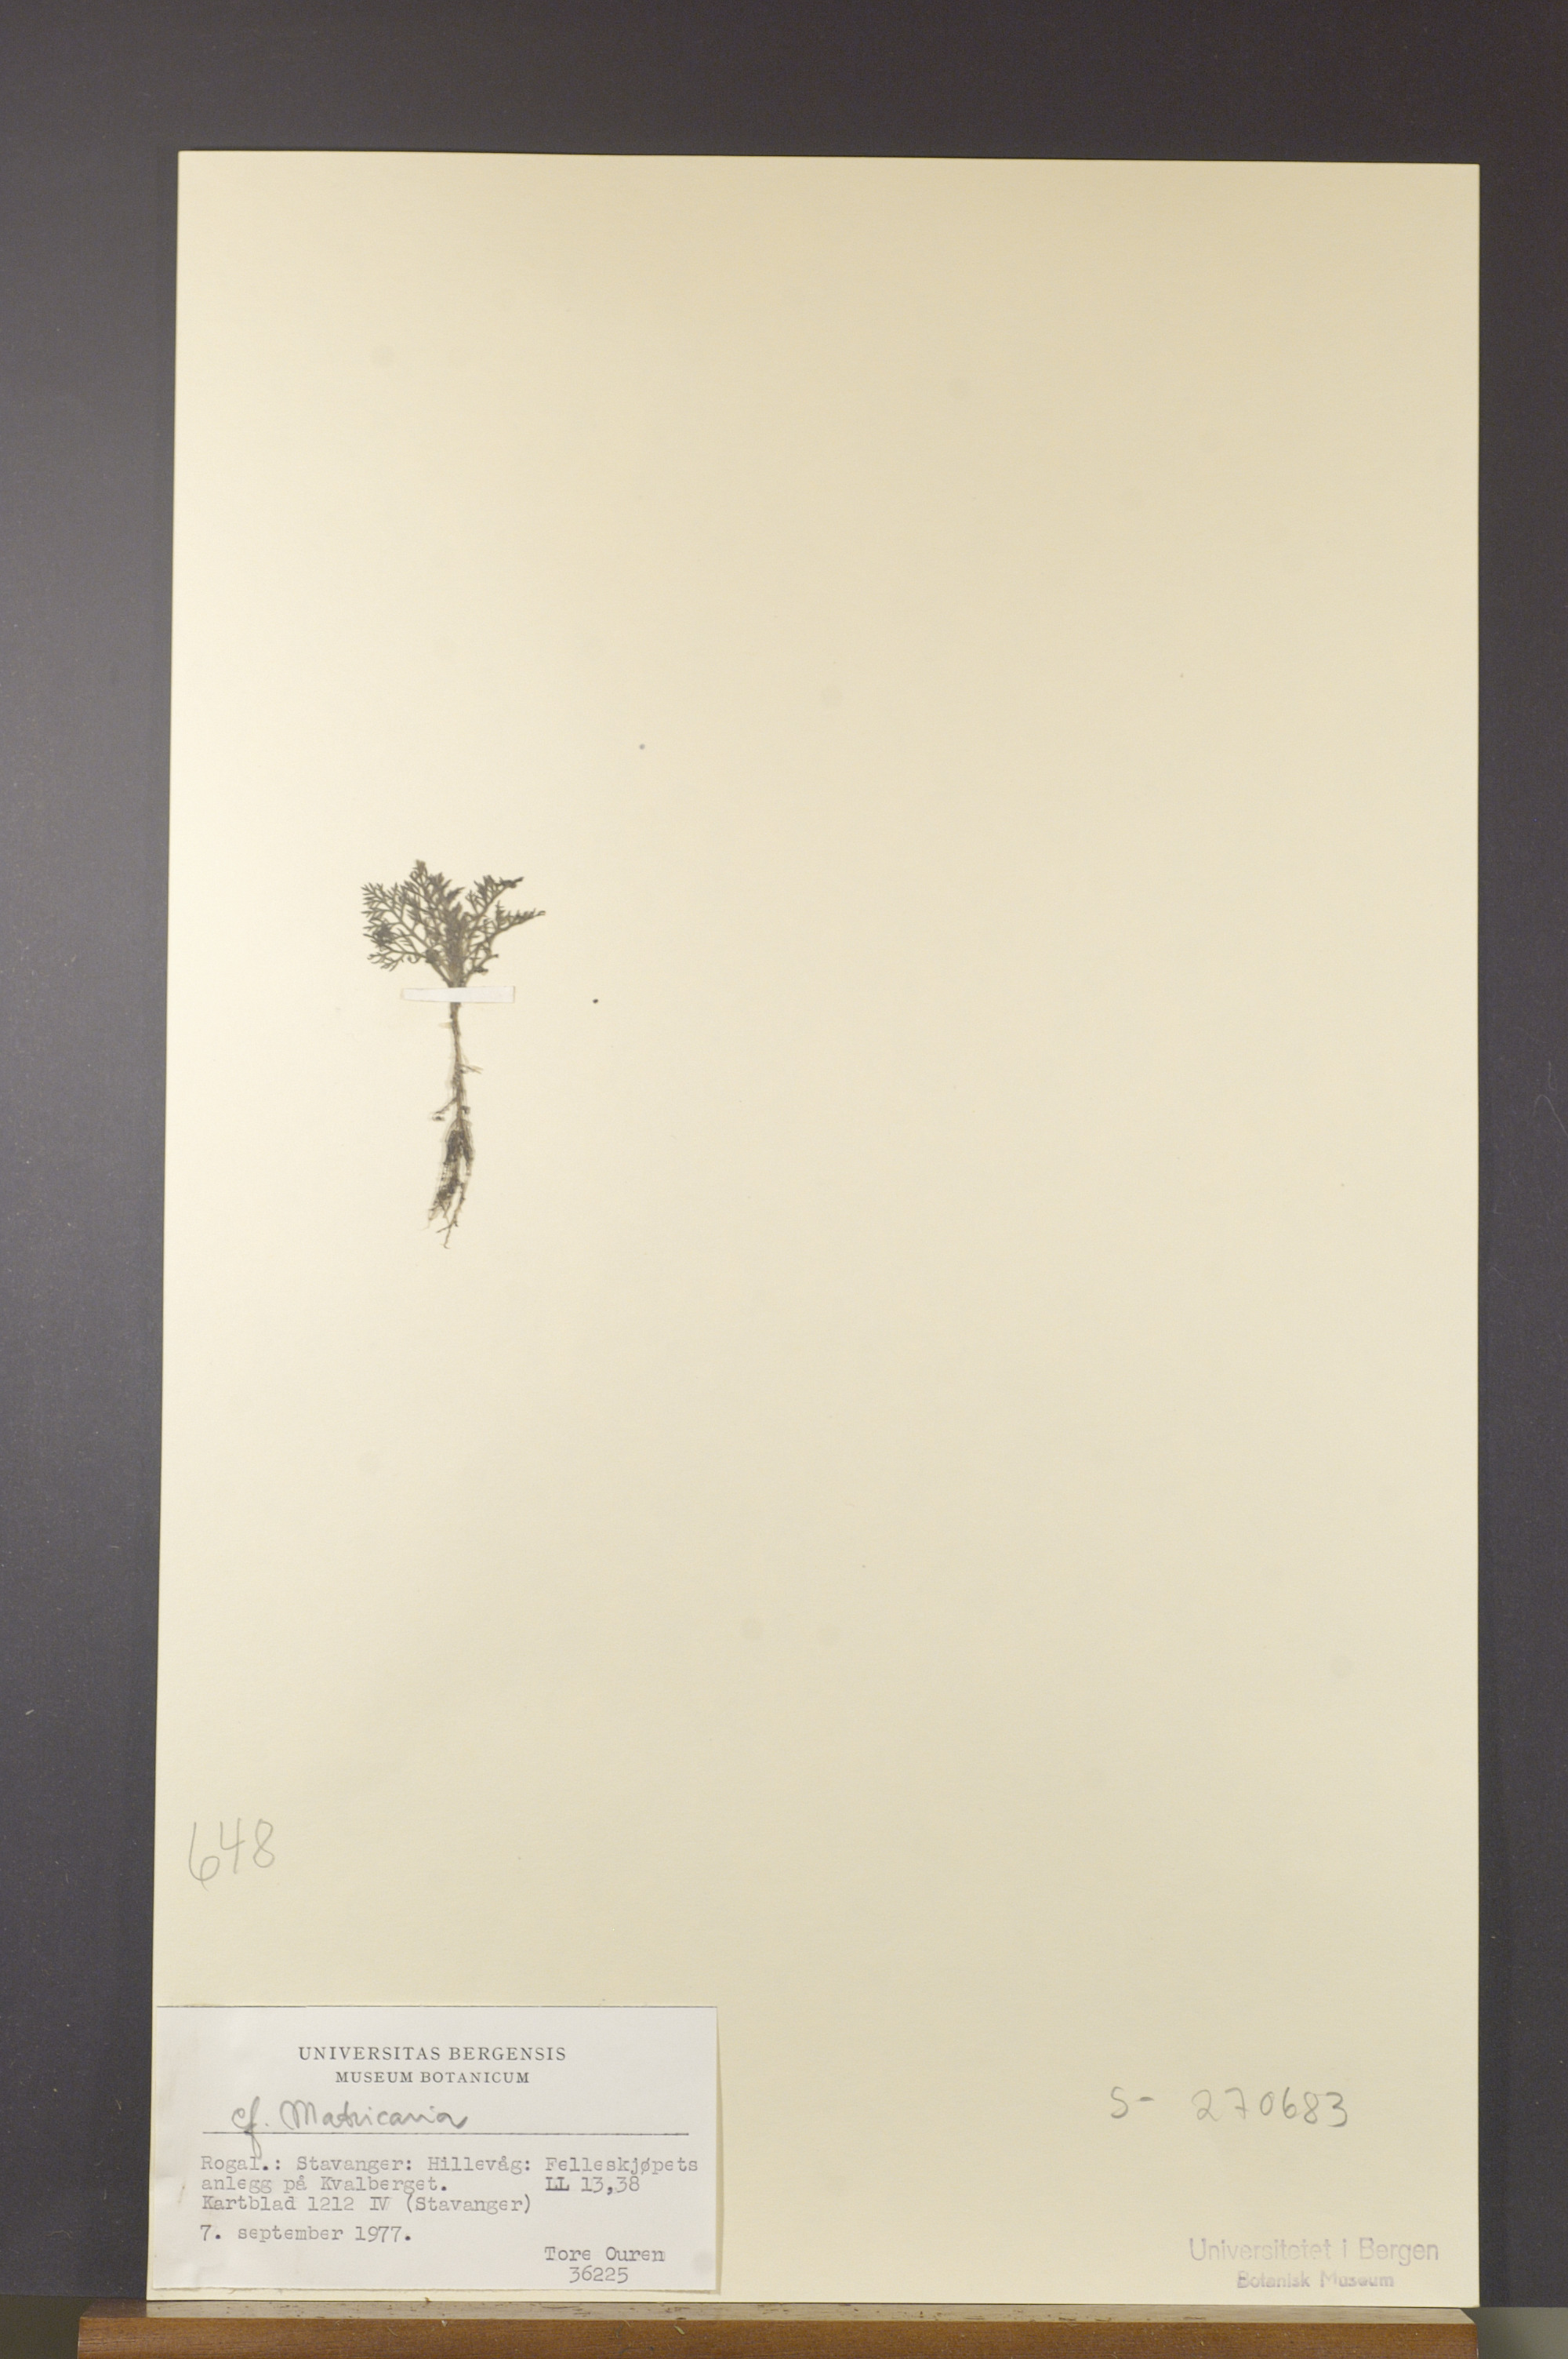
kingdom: Plantae
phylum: Tracheophyta
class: Magnoliopsida
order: Asterales
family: Asteraceae
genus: Matricaria
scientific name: Matricaria
